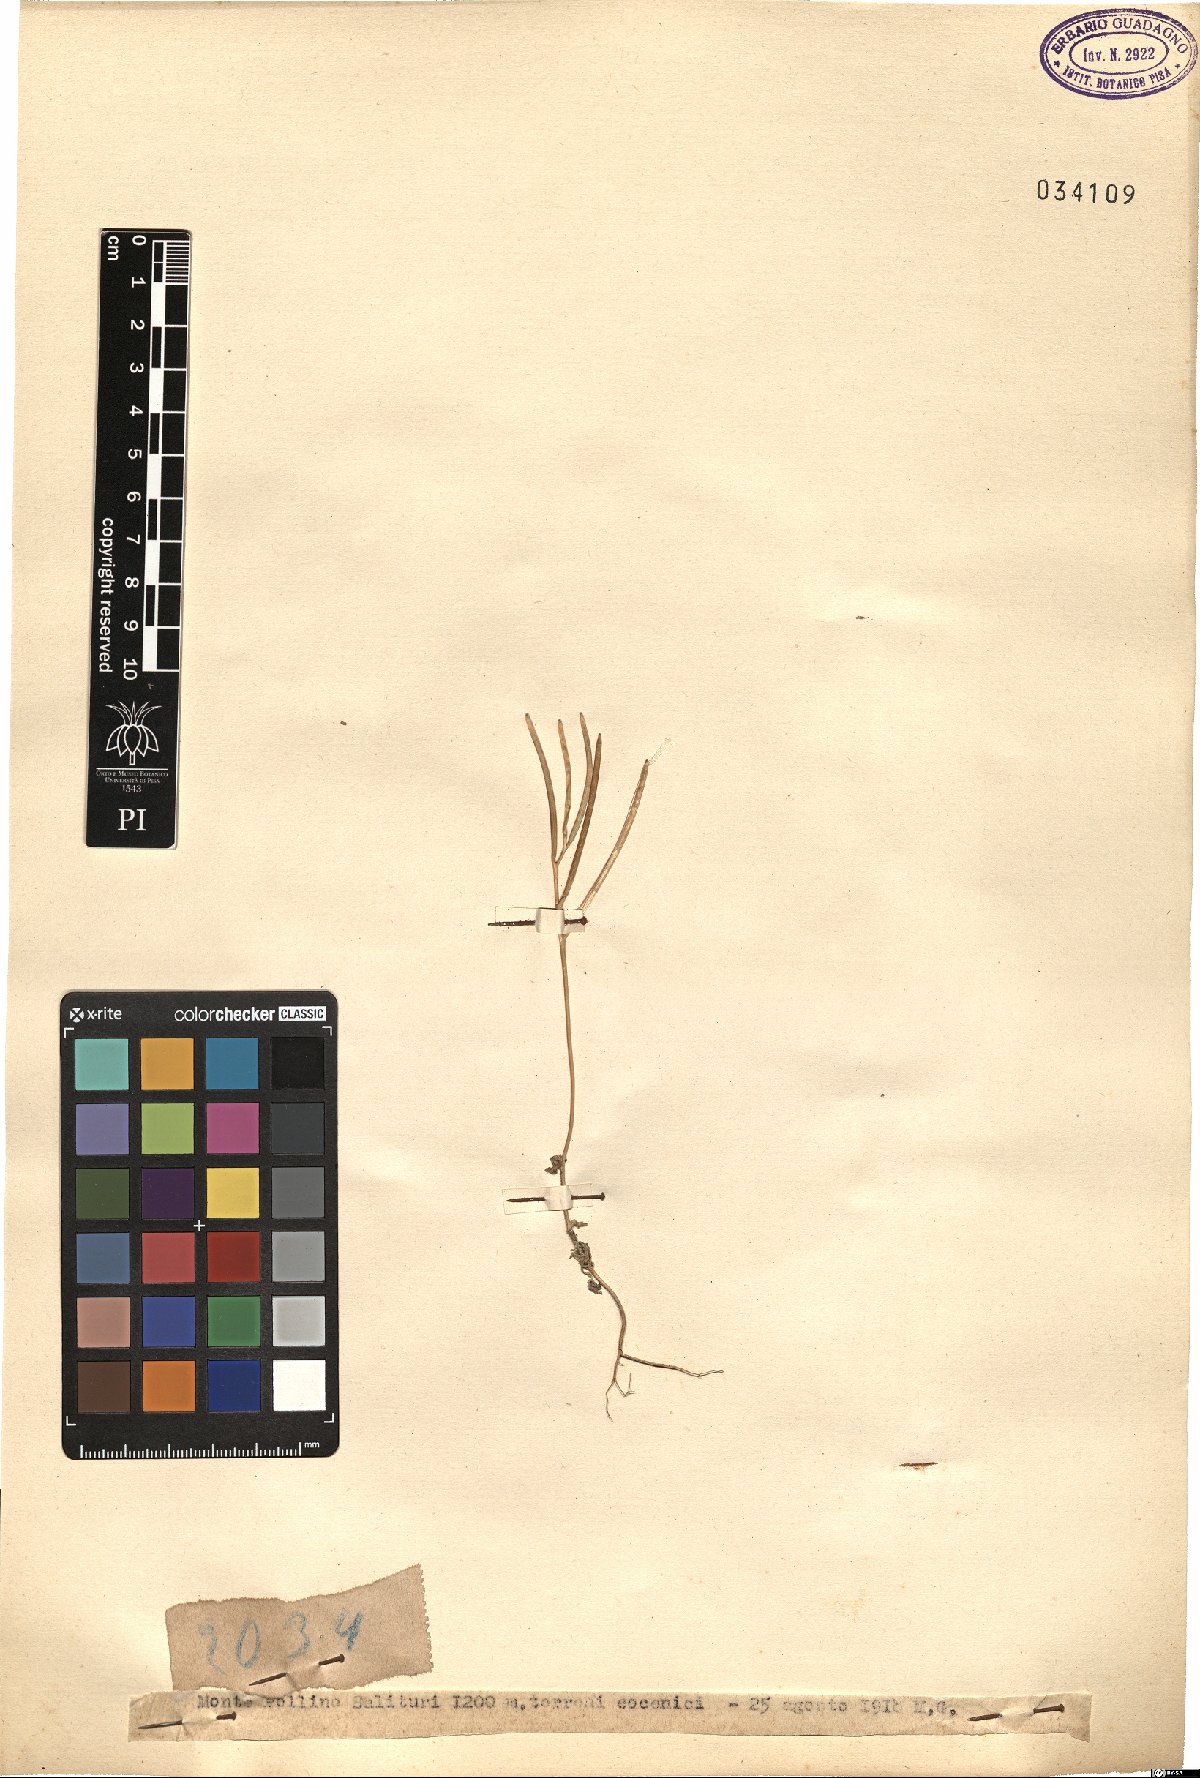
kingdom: Plantae
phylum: Tracheophyta
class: Magnoliopsida
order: Brassicales
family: Brassicaceae
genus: Arabis
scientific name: Arabis
